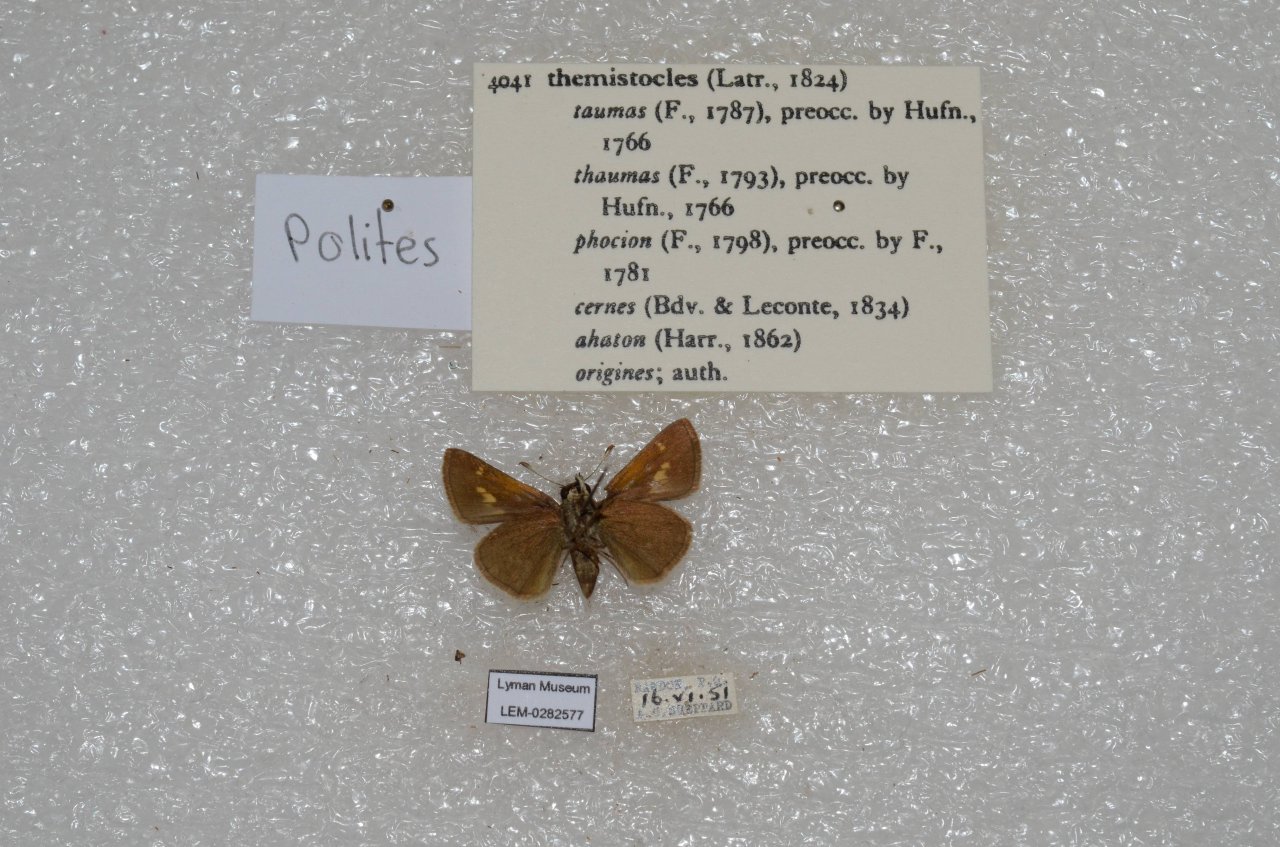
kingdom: Animalia
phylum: Arthropoda
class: Insecta
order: Lepidoptera
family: Hesperiidae
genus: Polites
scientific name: Polites themistocles
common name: Tawny-edged Skipper
